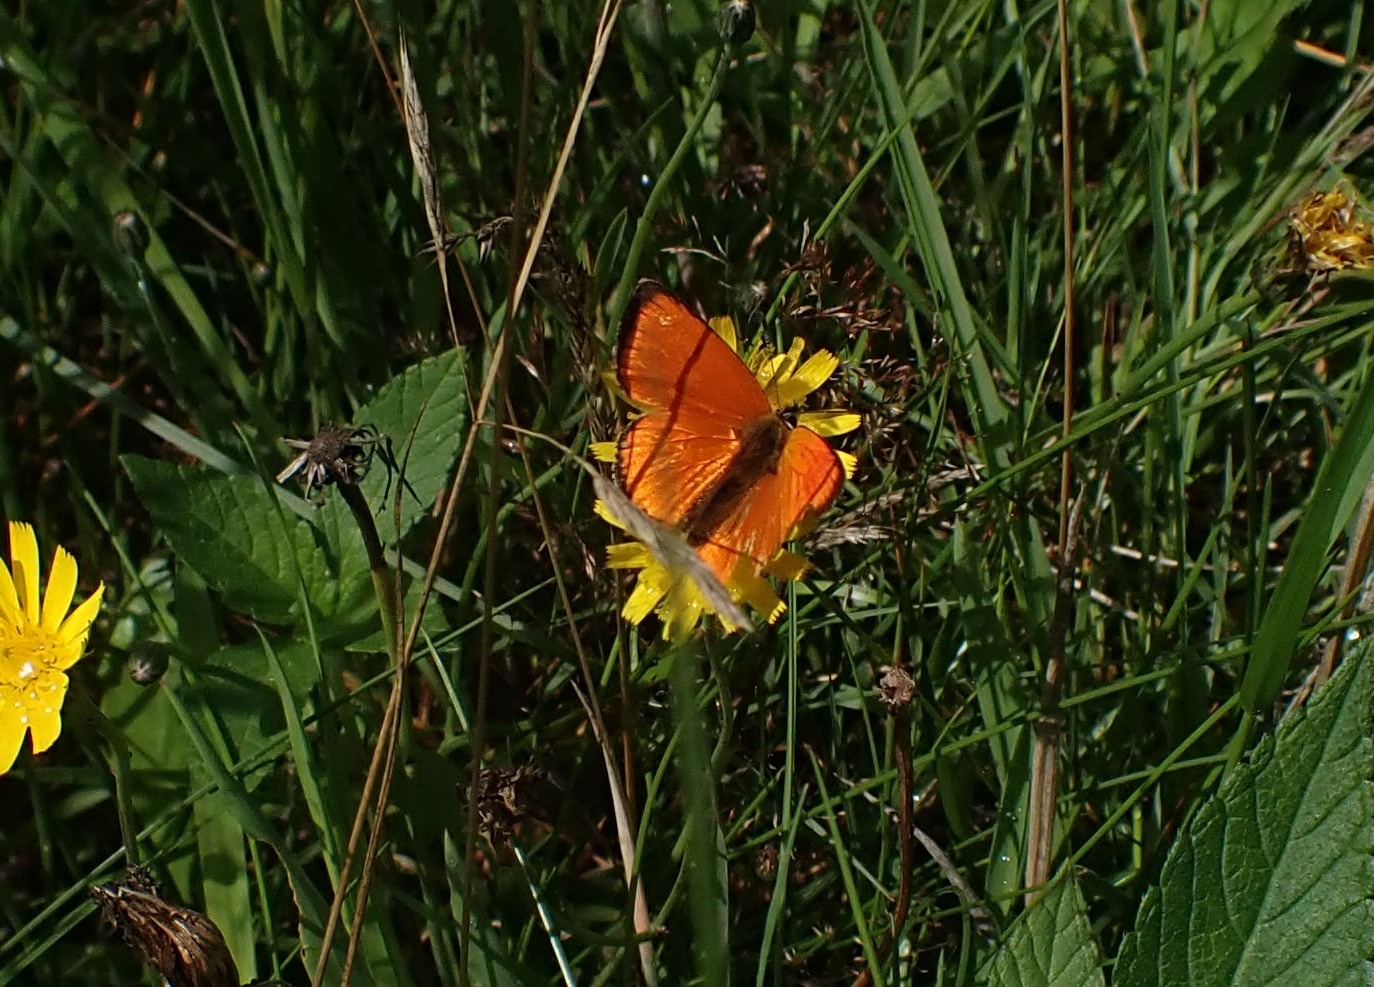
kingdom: Animalia
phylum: Arthropoda
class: Insecta
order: Lepidoptera
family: Lycaenidae
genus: Lycaena
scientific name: Lycaena virgaureae
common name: Dukatsommerfugl
